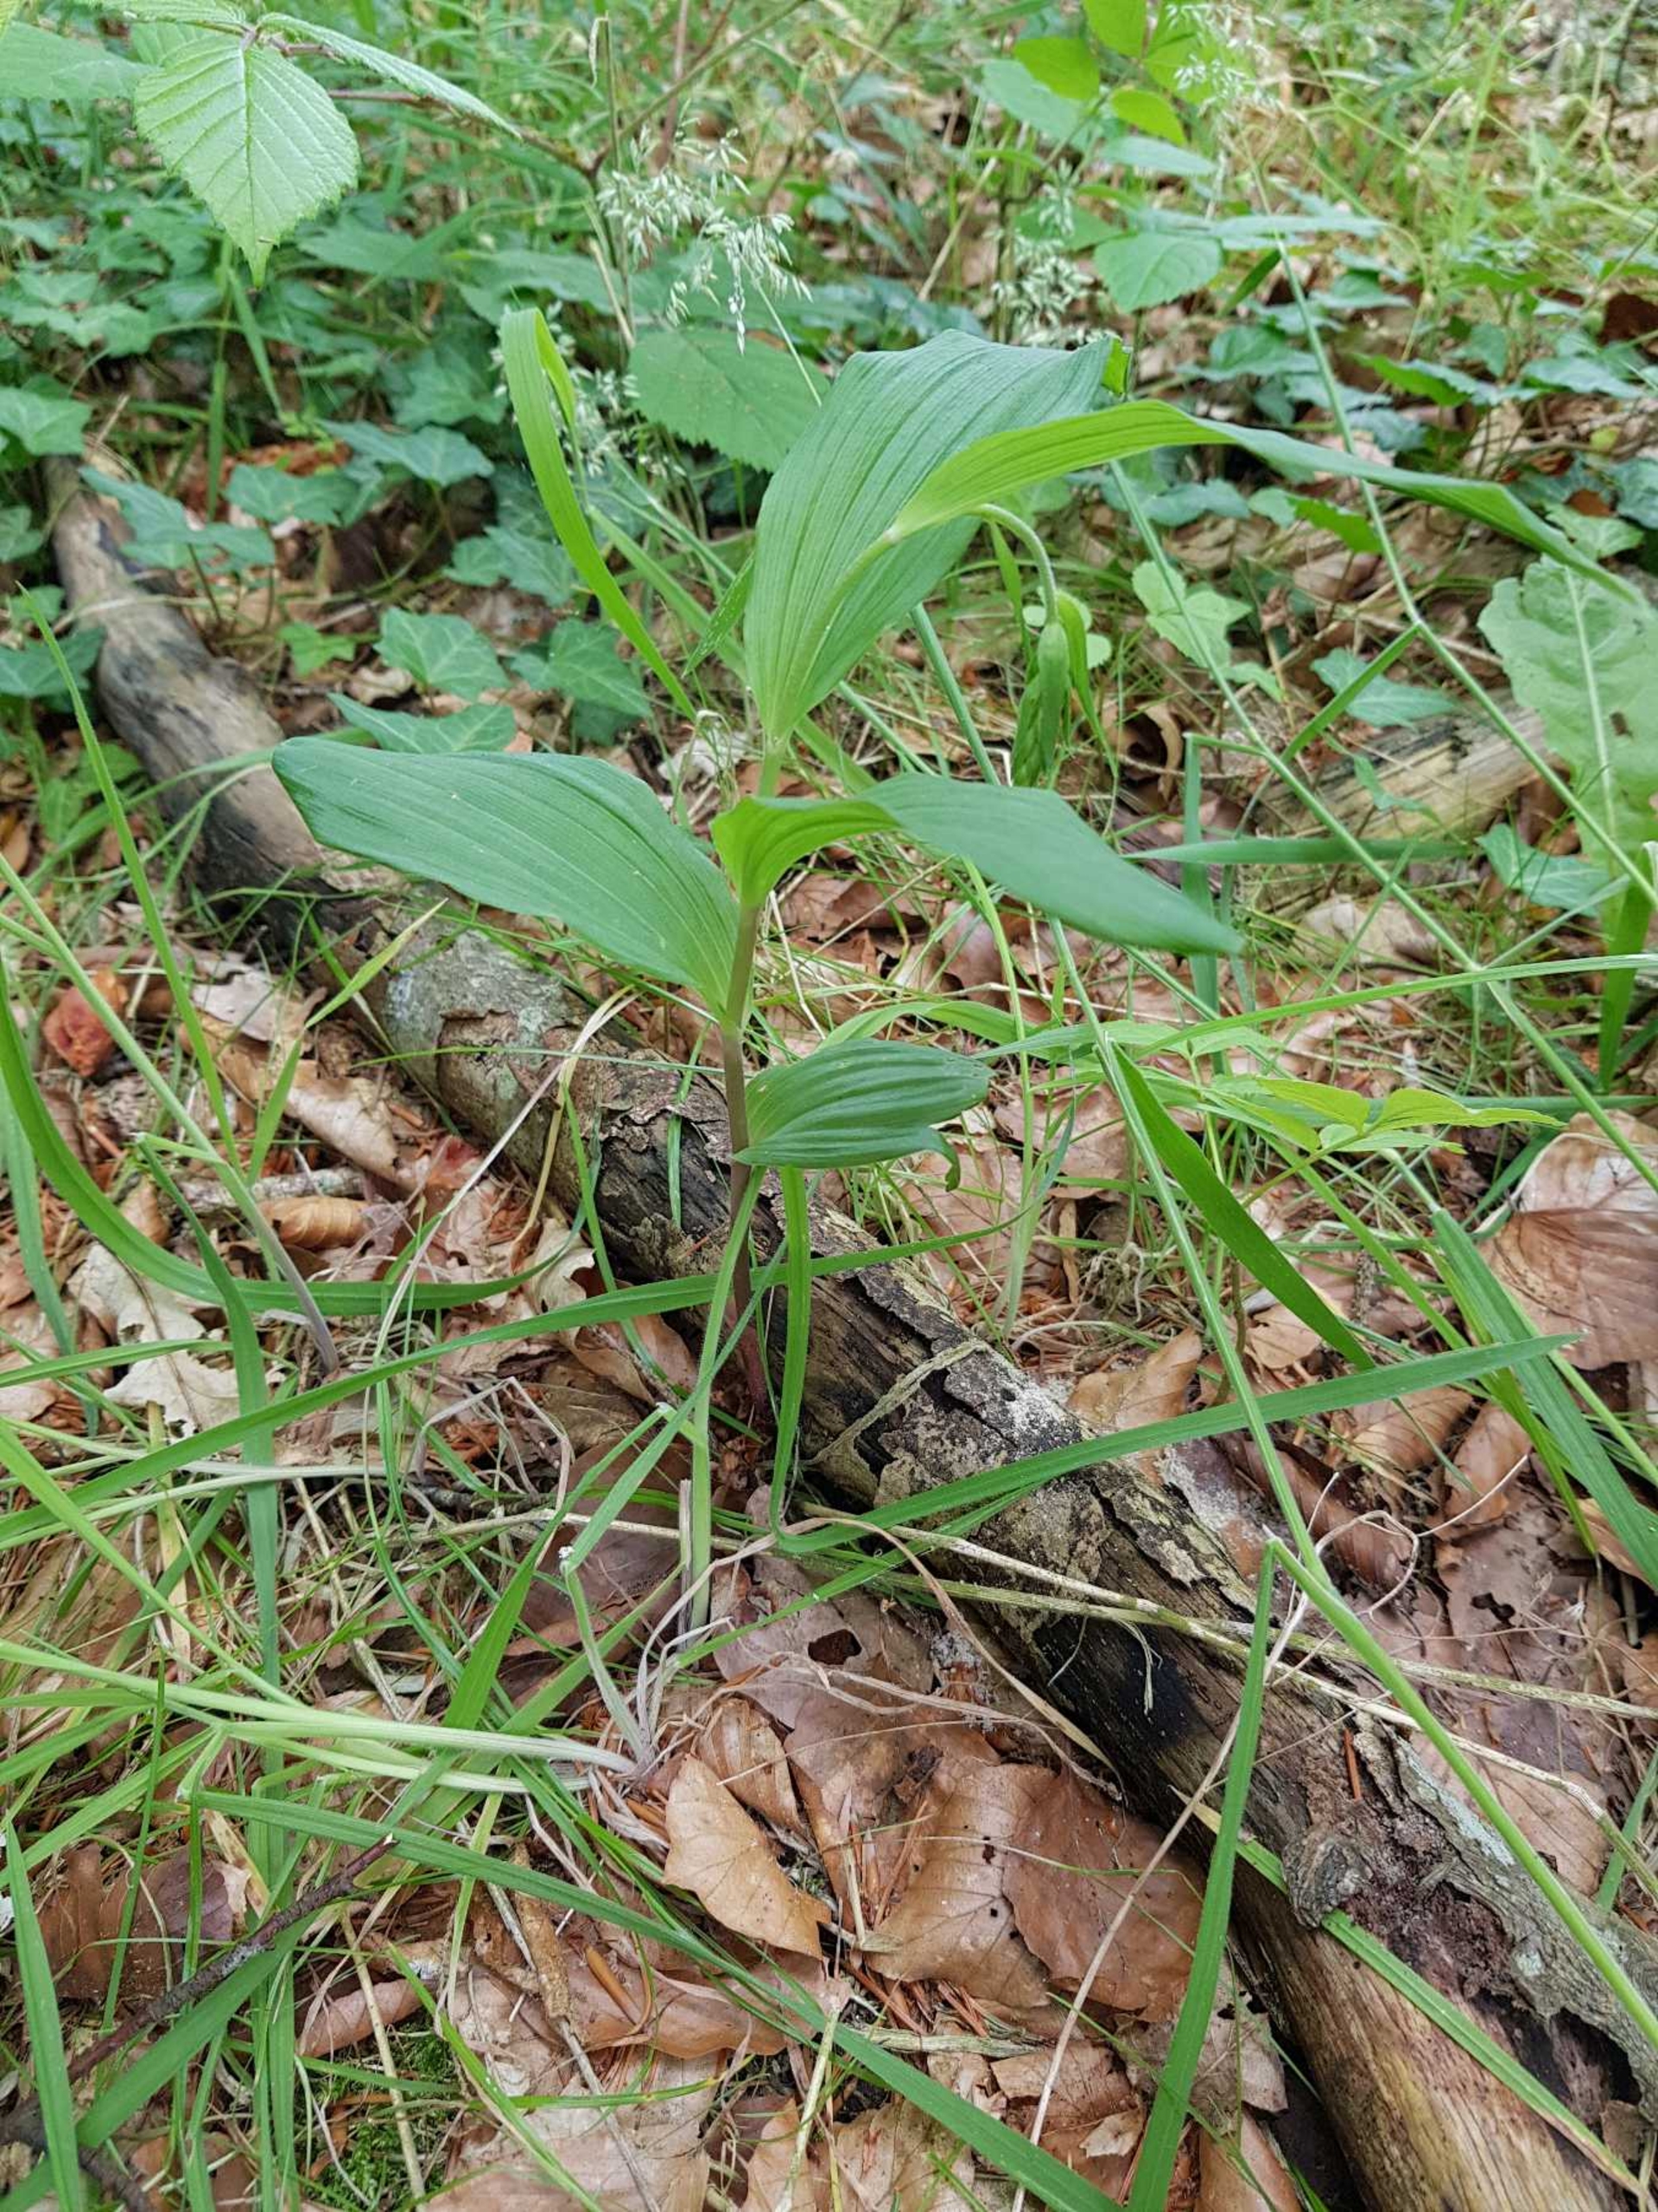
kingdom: Plantae
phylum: Tracheophyta
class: Liliopsida
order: Asparagales
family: Orchidaceae
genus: Epipactis
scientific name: Epipactis helleborine
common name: Skov-hullæbe
